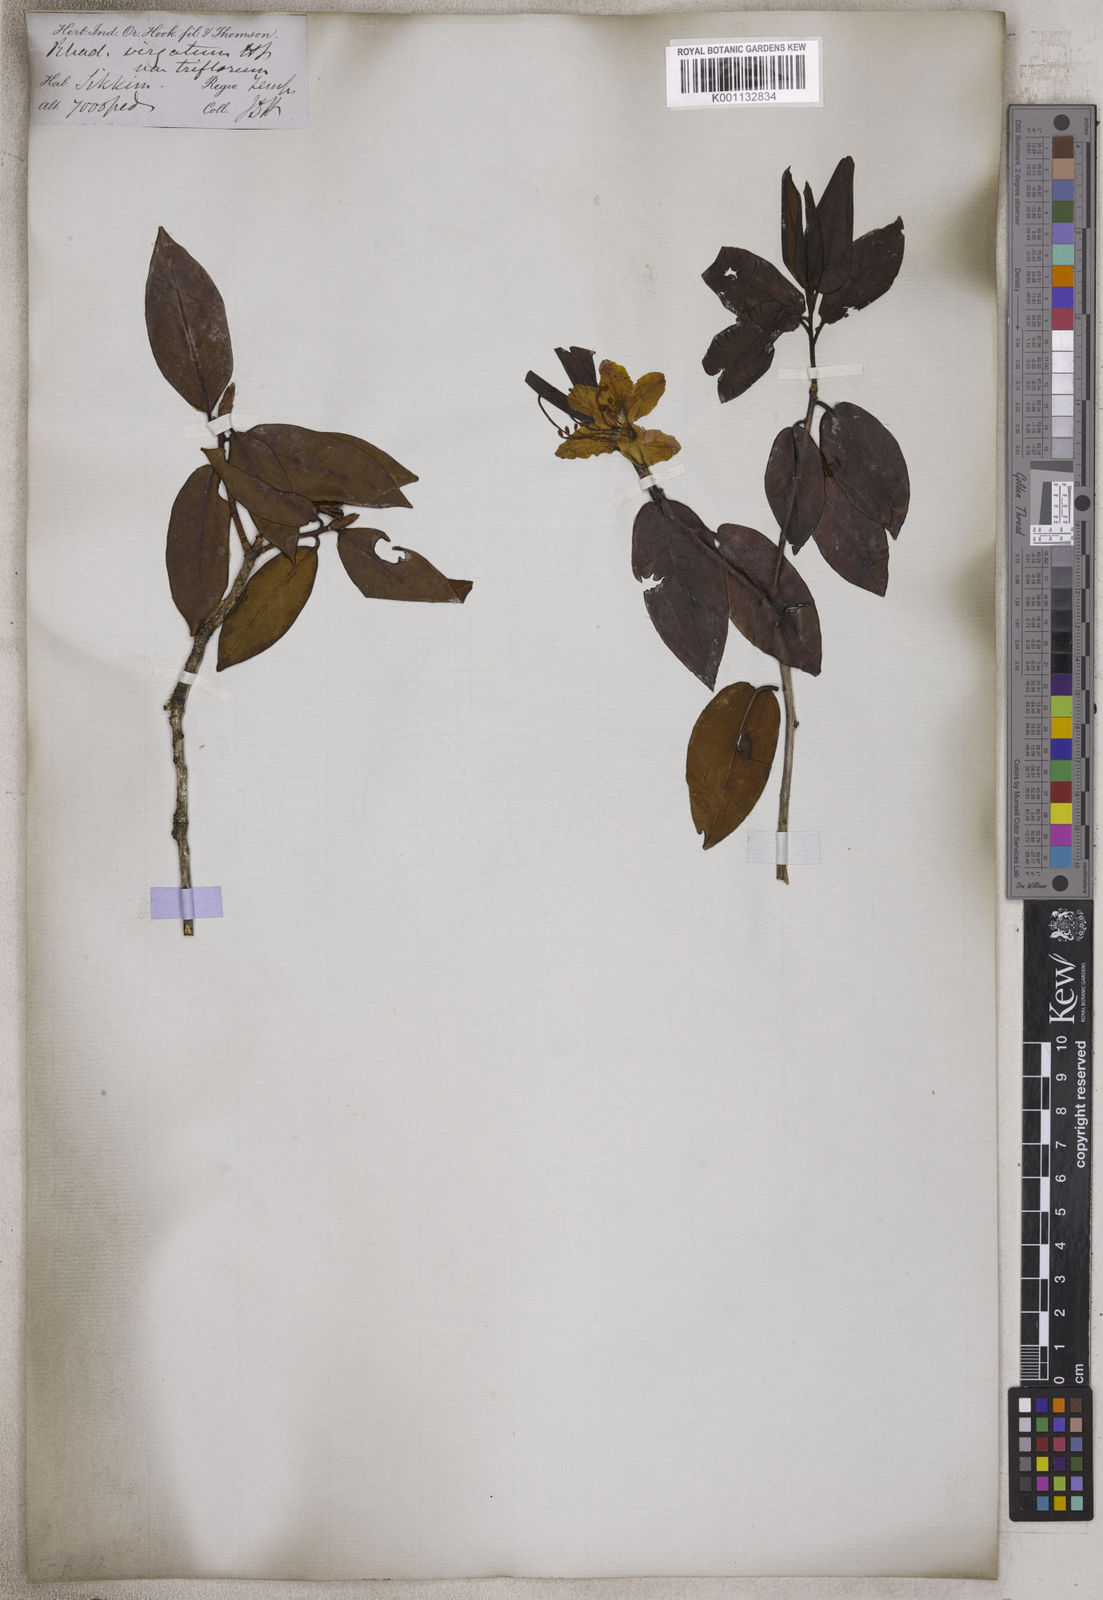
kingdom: Plantae
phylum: Tracheophyta
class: Magnoliopsida
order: Ericales
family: Ericaceae
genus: Rhododendron
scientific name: Rhododendron virgatum
